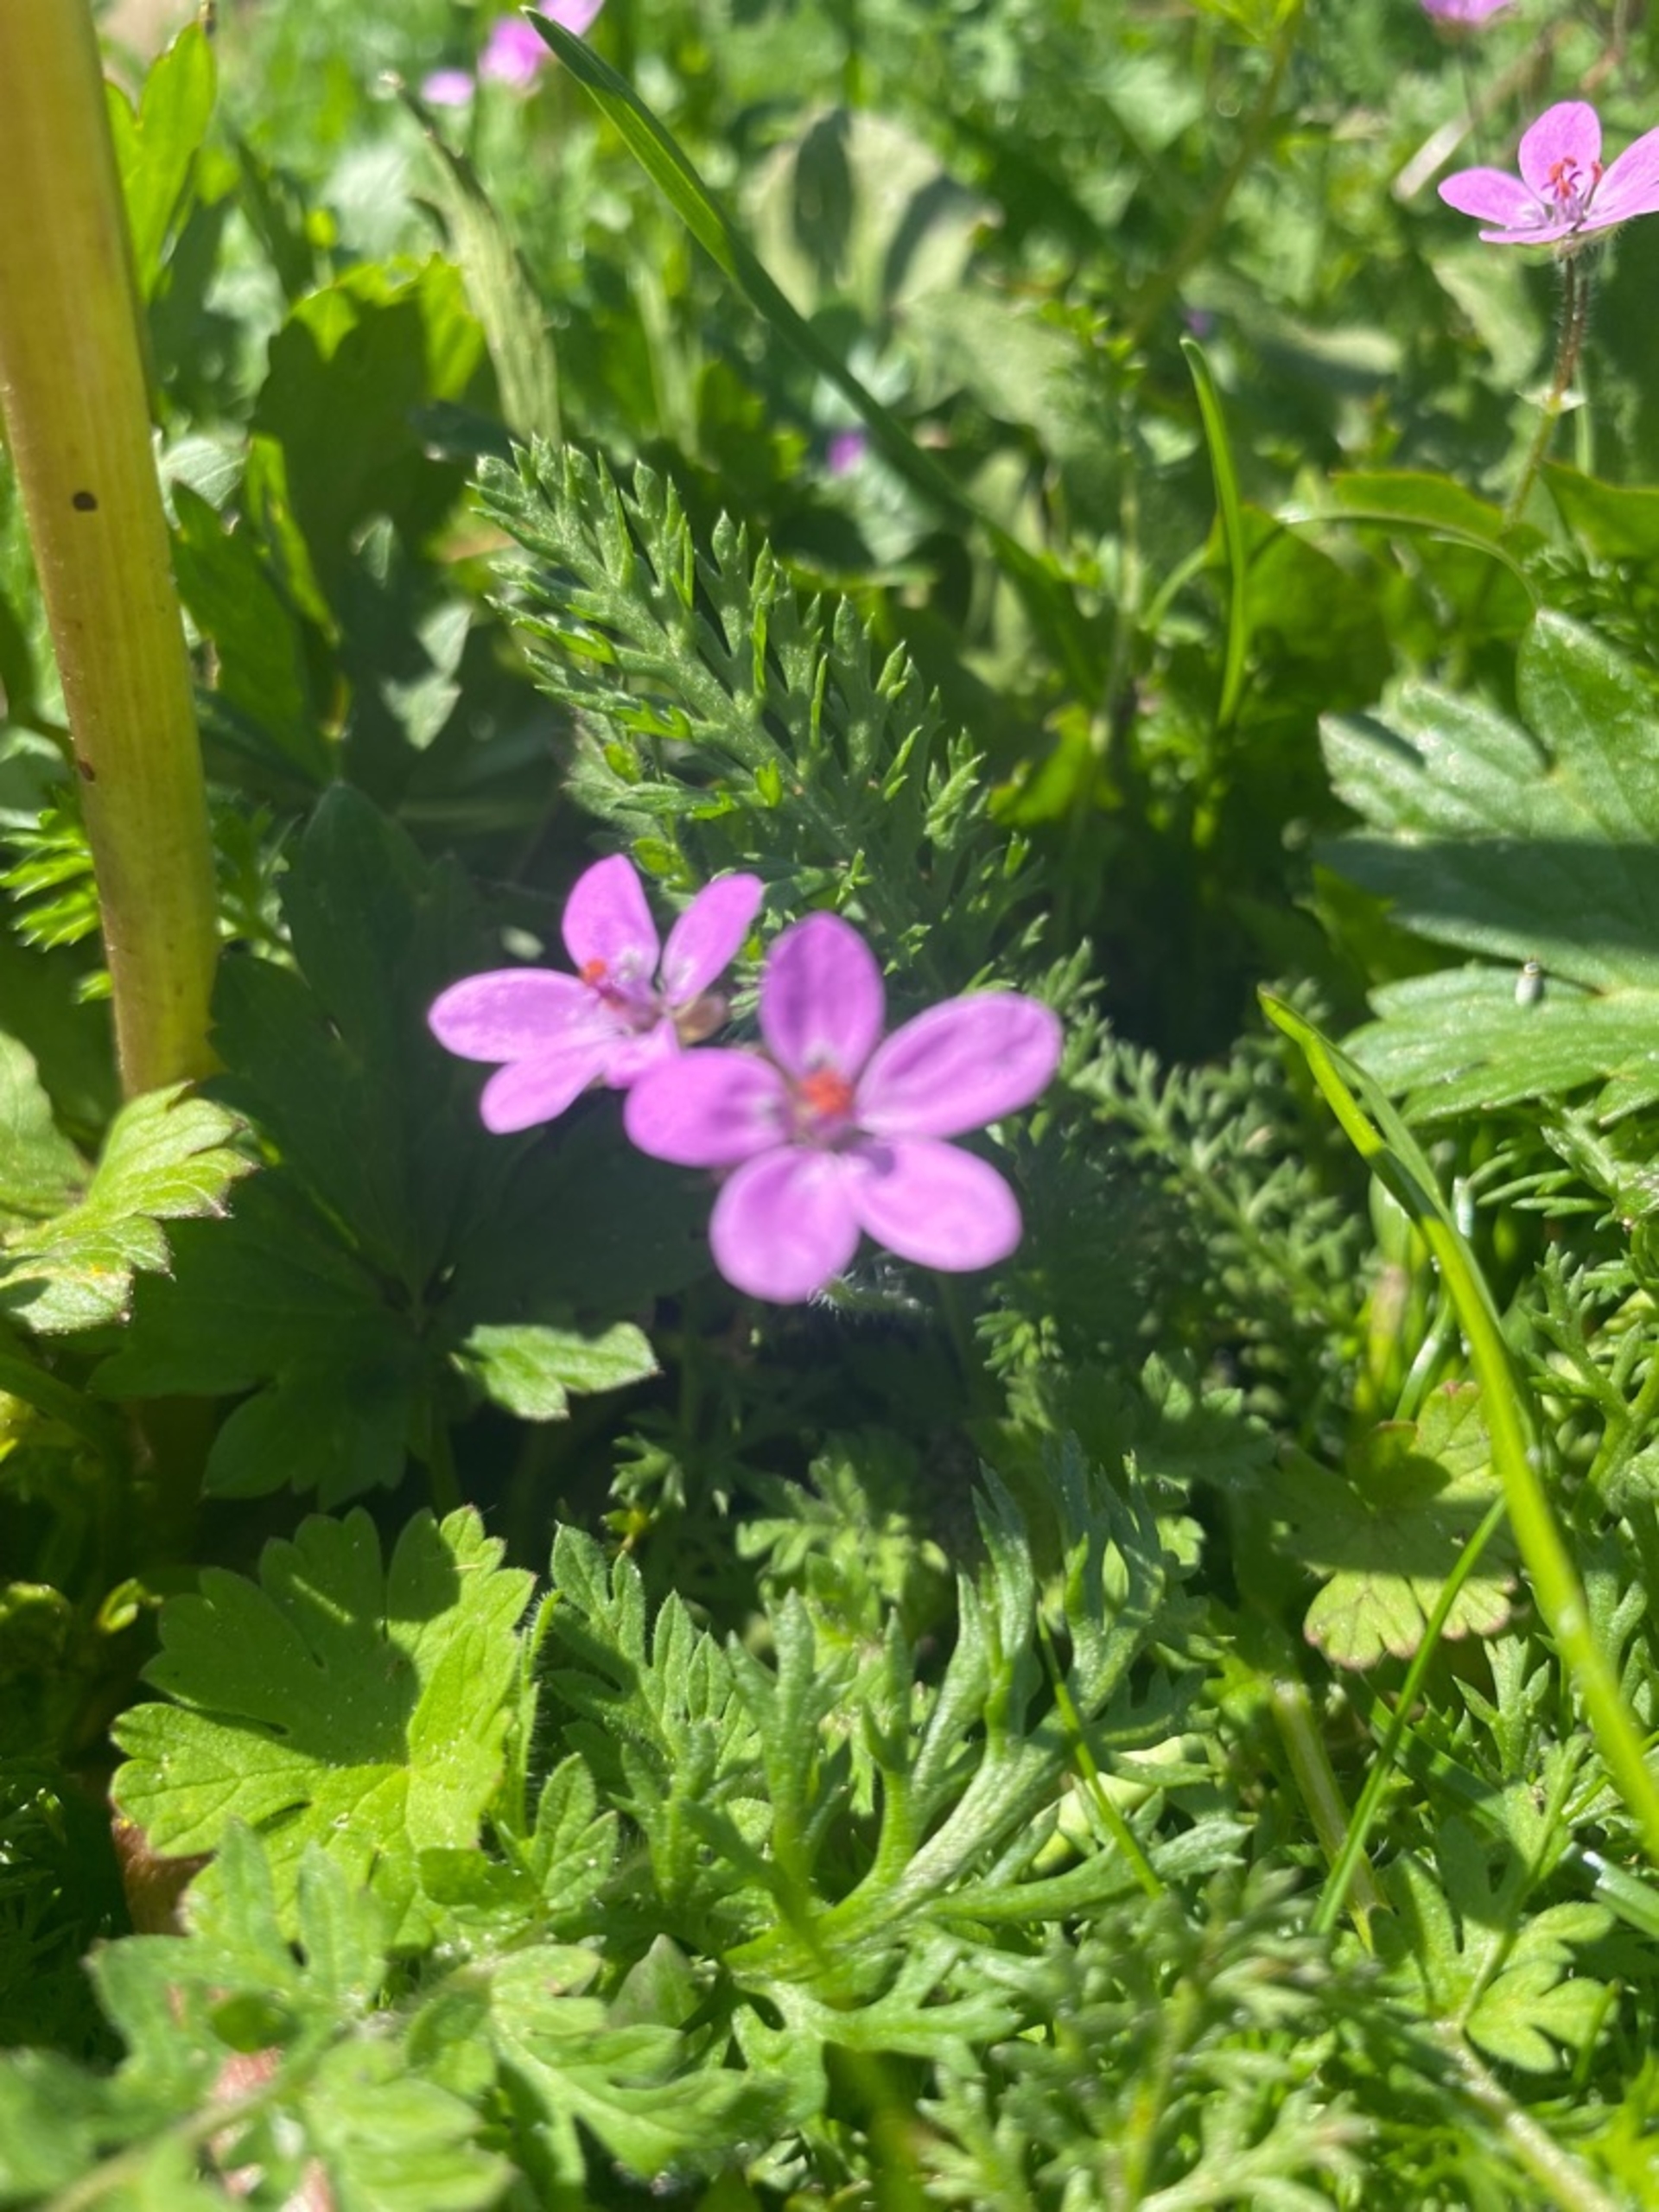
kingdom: Plantae
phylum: Tracheophyta
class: Magnoliopsida
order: Geraniales
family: Geraniaceae
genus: Erodium
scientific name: Erodium cicutarium
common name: Hejrenæb
